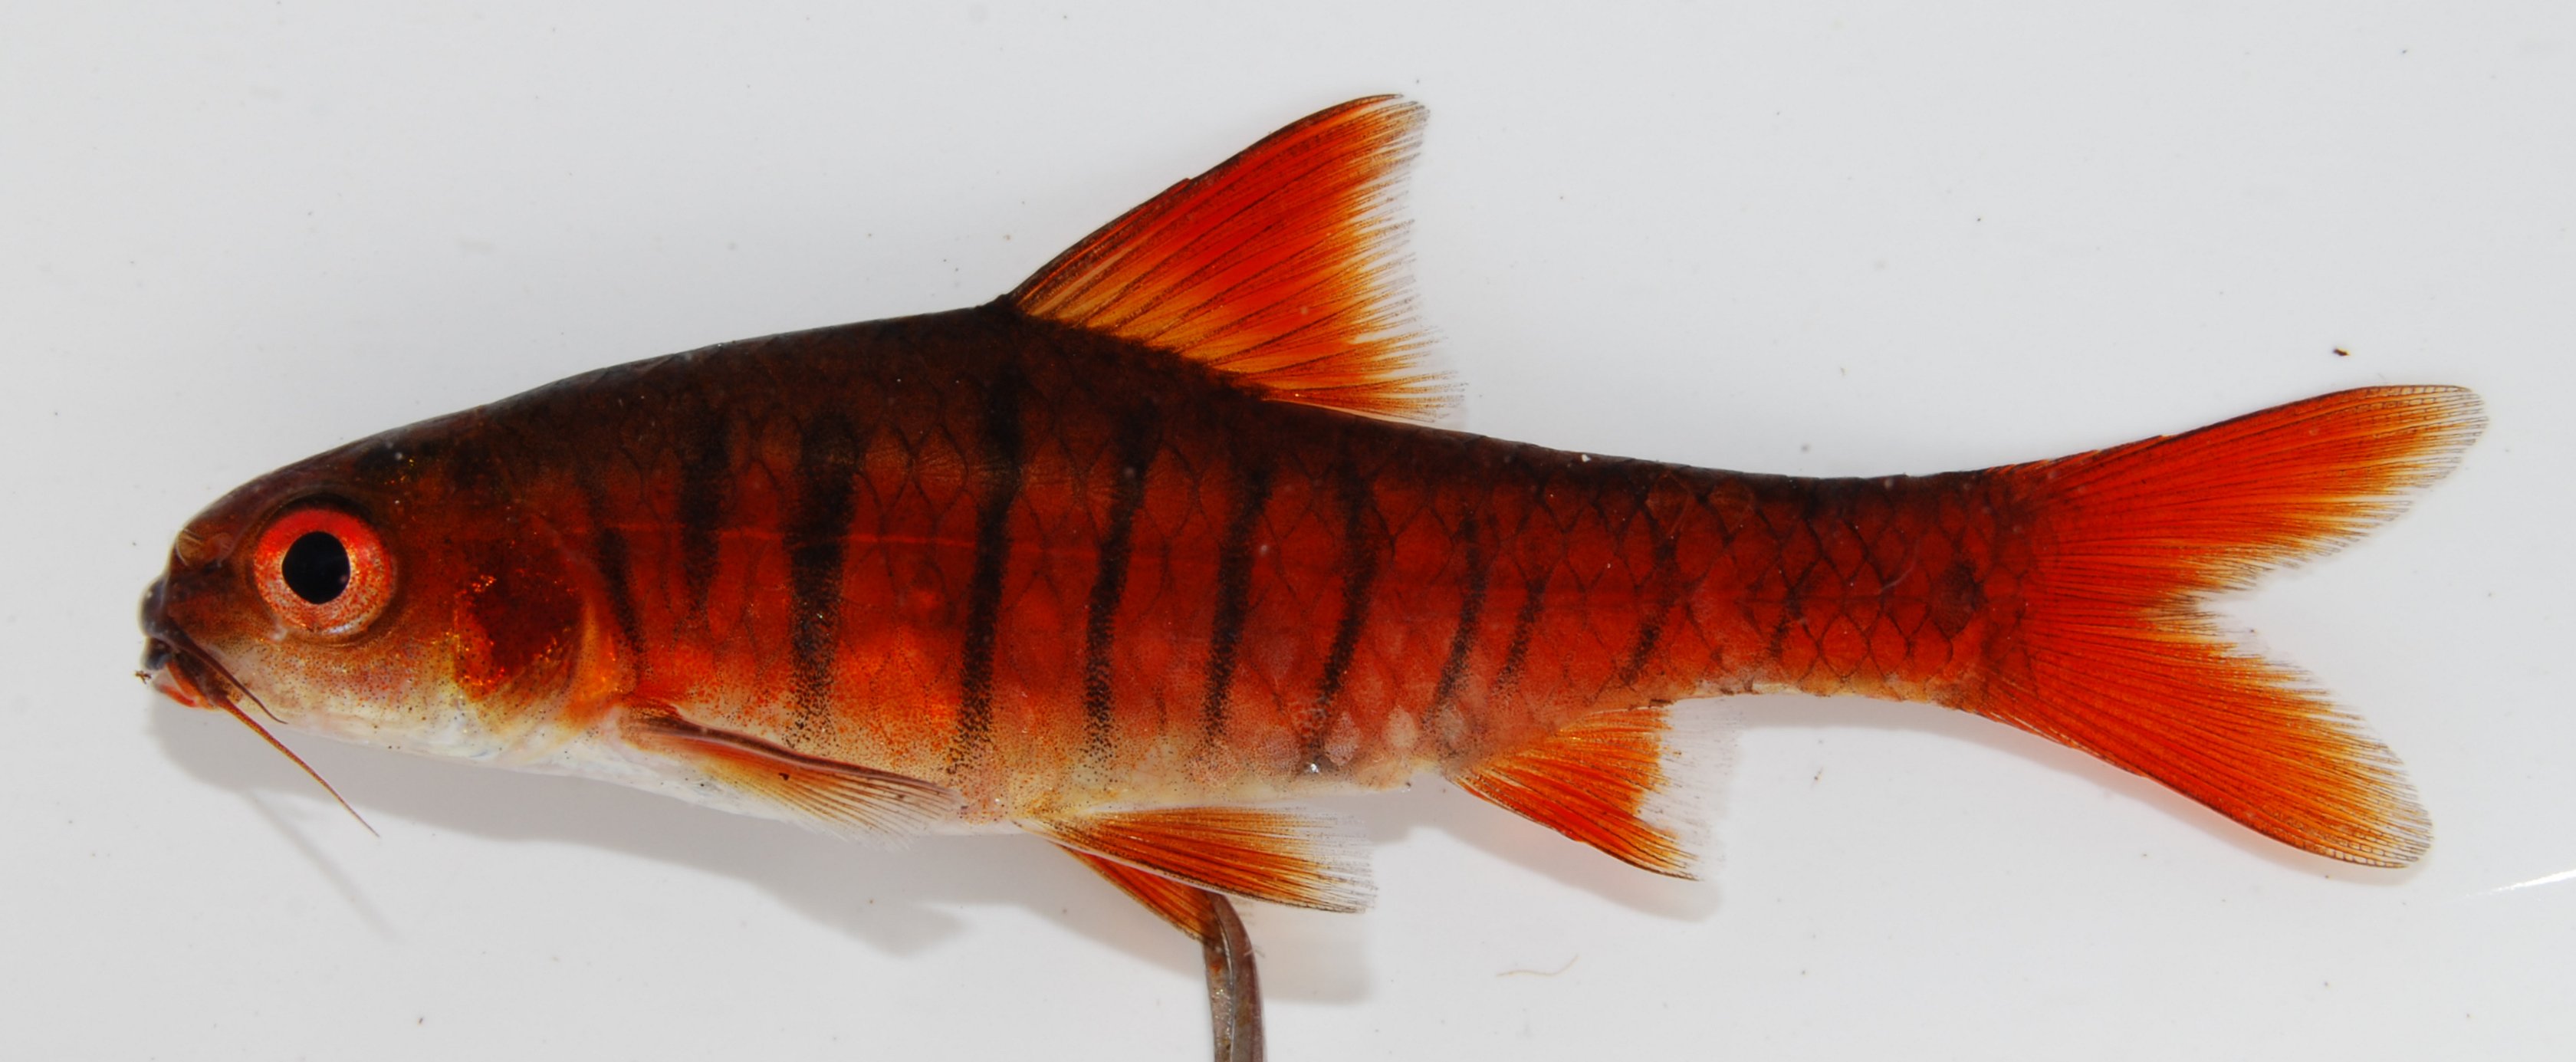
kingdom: Animalia
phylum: Chordata
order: Cypriniformes
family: Cyprinidae
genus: Enteromius
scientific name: Enteromius fasciolatus
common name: Red barb
